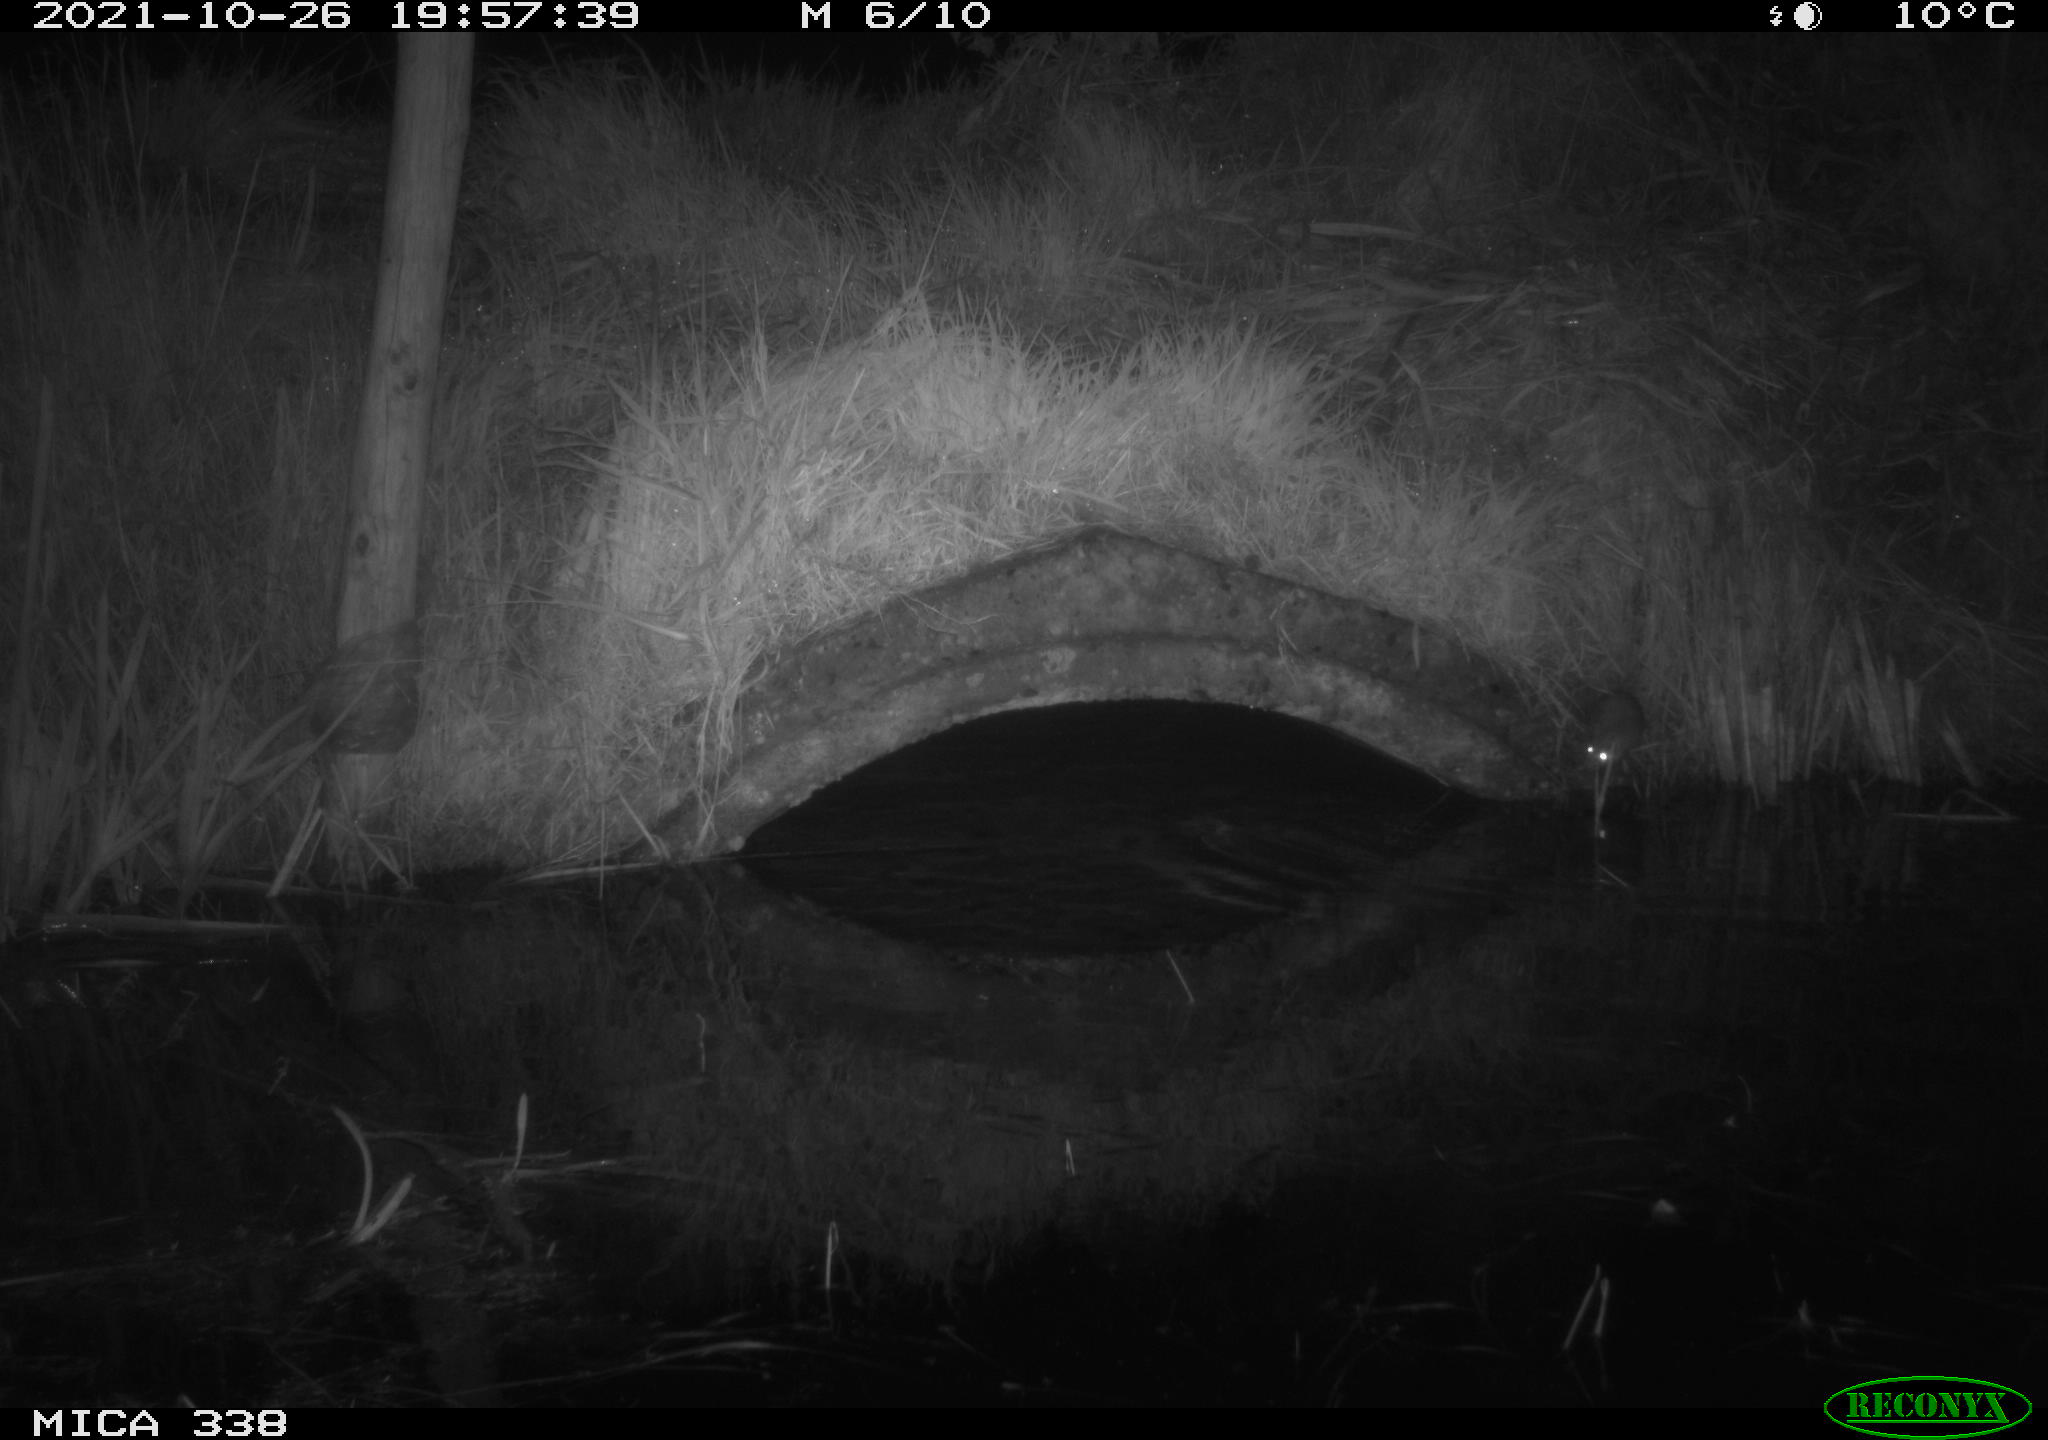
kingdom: Animalia
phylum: Chordata
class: Mammalia
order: Rodentia
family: Muridae
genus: Rattus
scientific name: Rattus norvegicus
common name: Brown rat
